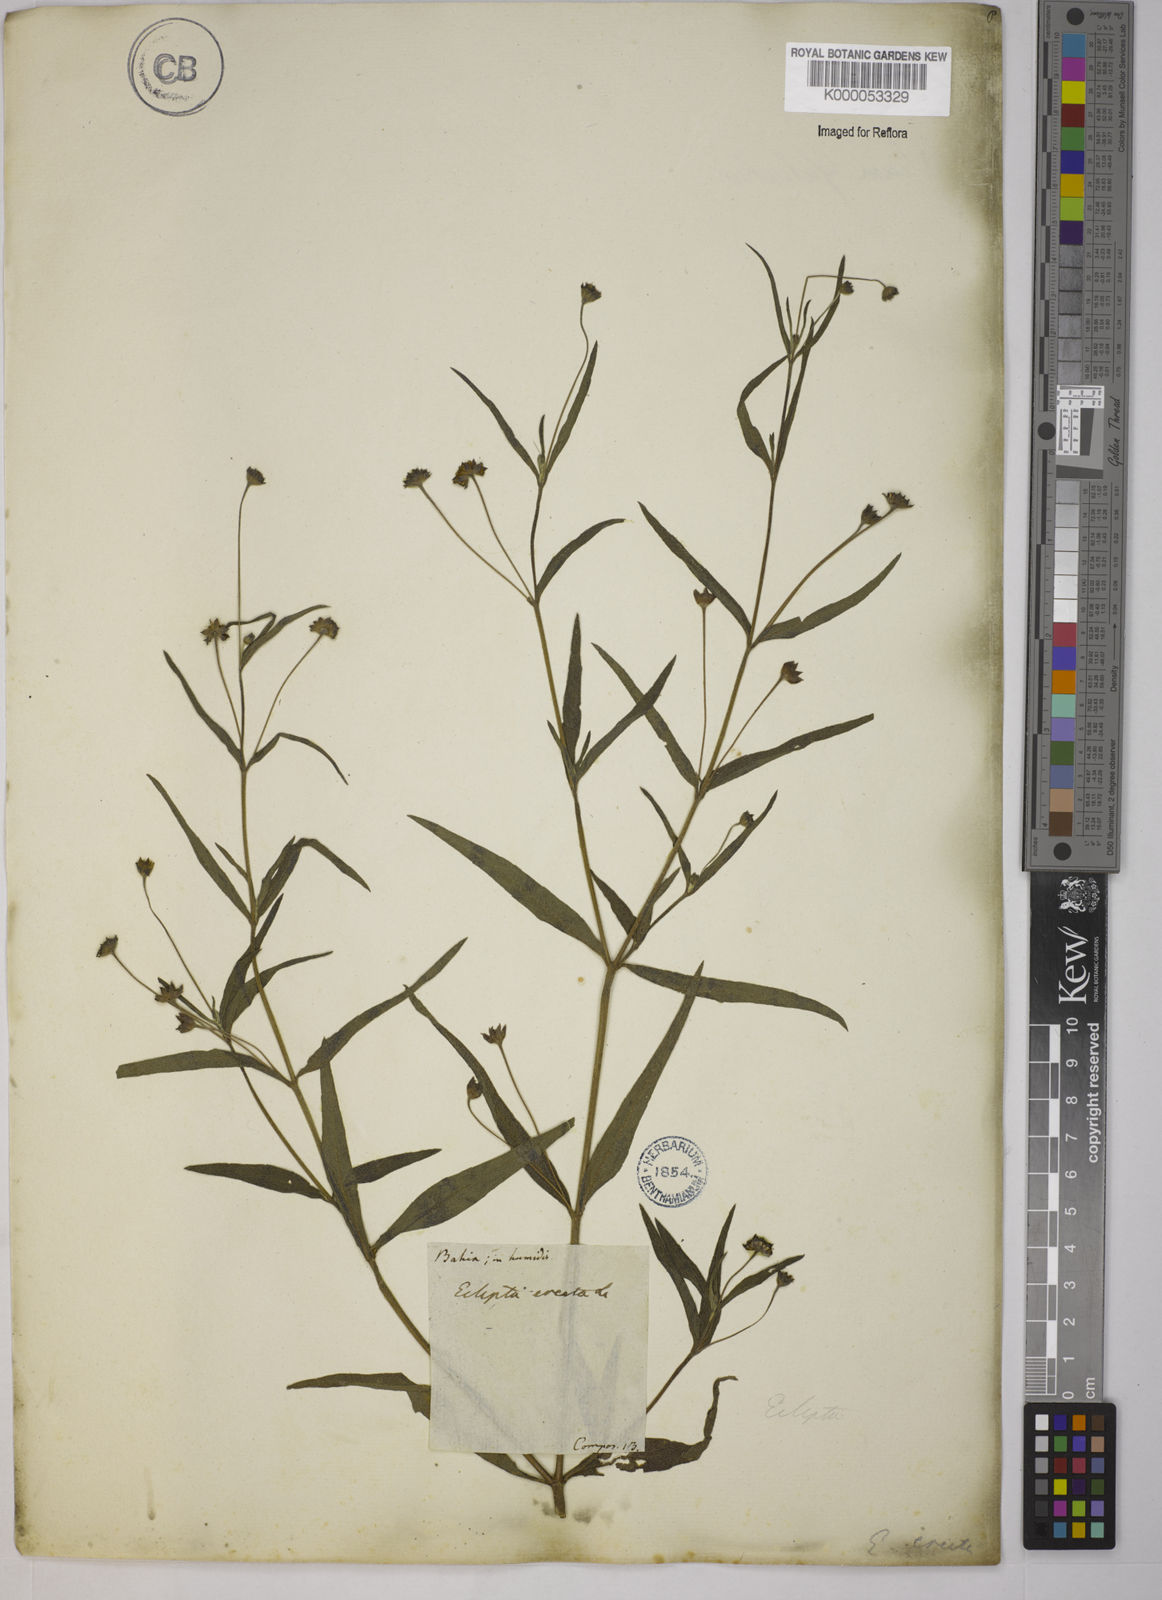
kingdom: Plantae
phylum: Tracheophyta
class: Magnoliopsida
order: Asterales
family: Asteraceae
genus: Eclipta
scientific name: Eclipta prostrata
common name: False daisy
